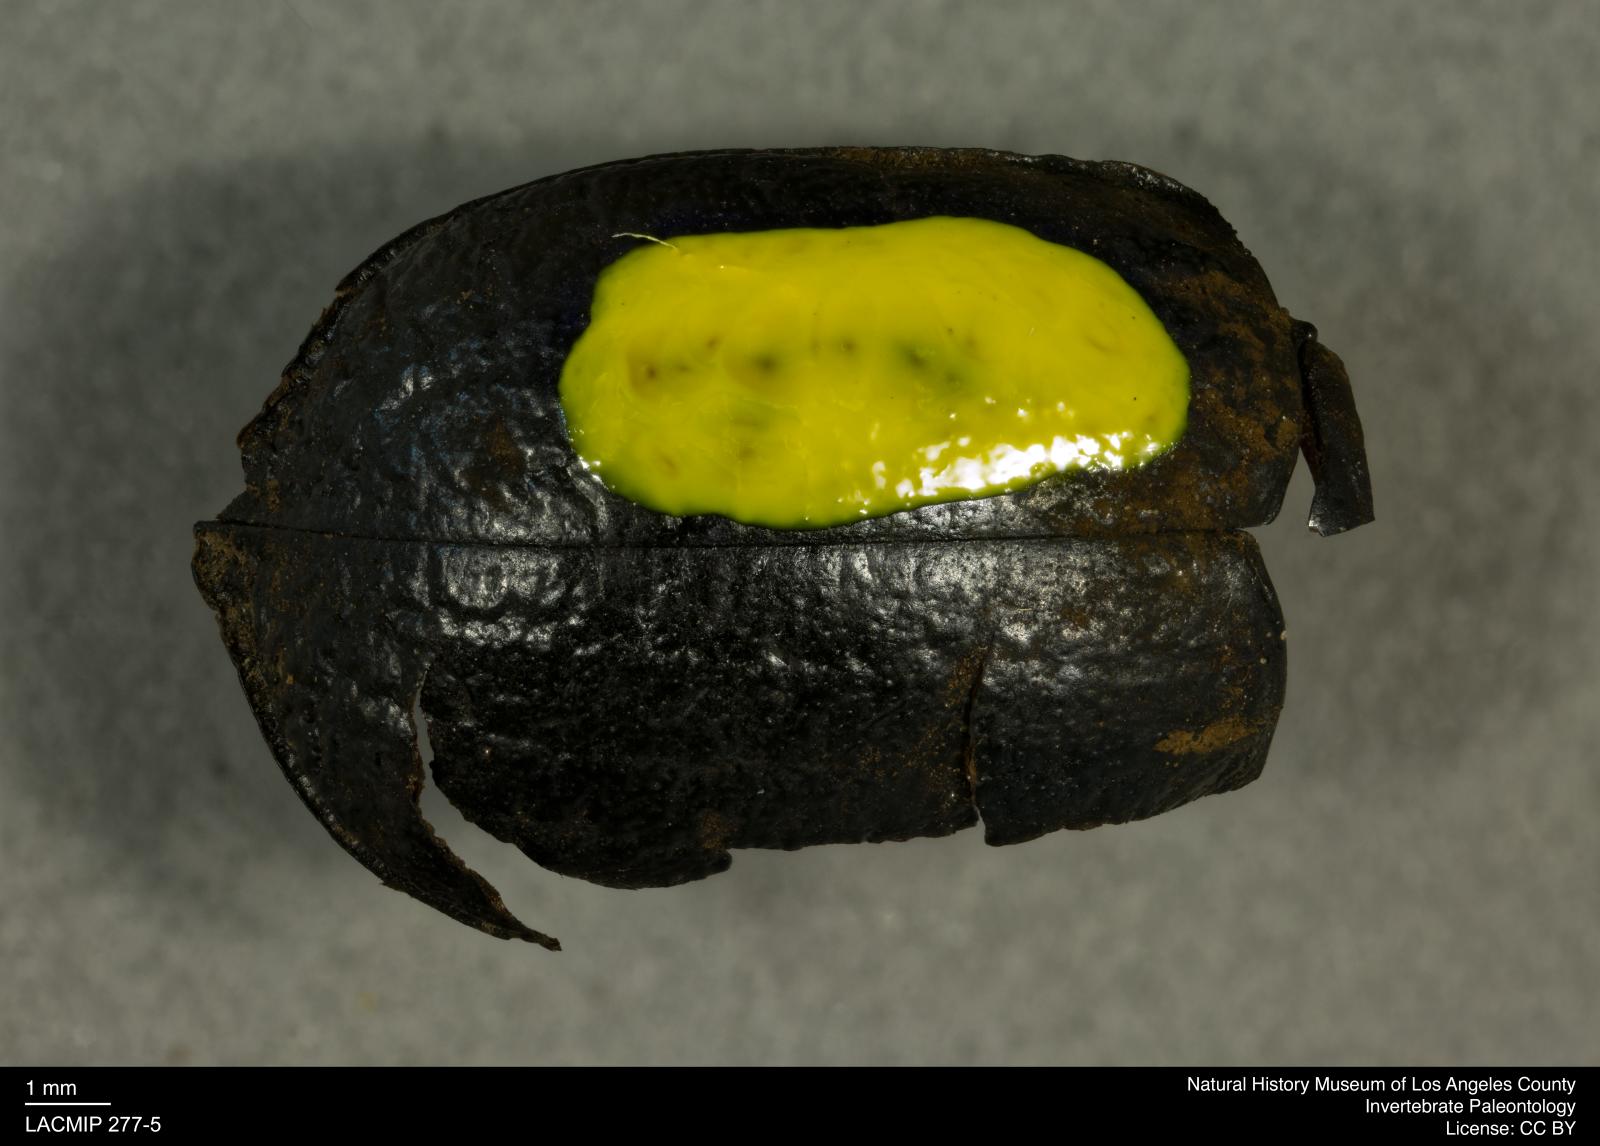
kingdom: Animalia
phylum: Arthropoda
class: Insecta
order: Coleoptera
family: Tenebrionidae
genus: Coniontis
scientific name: Coniontis abdominalis
